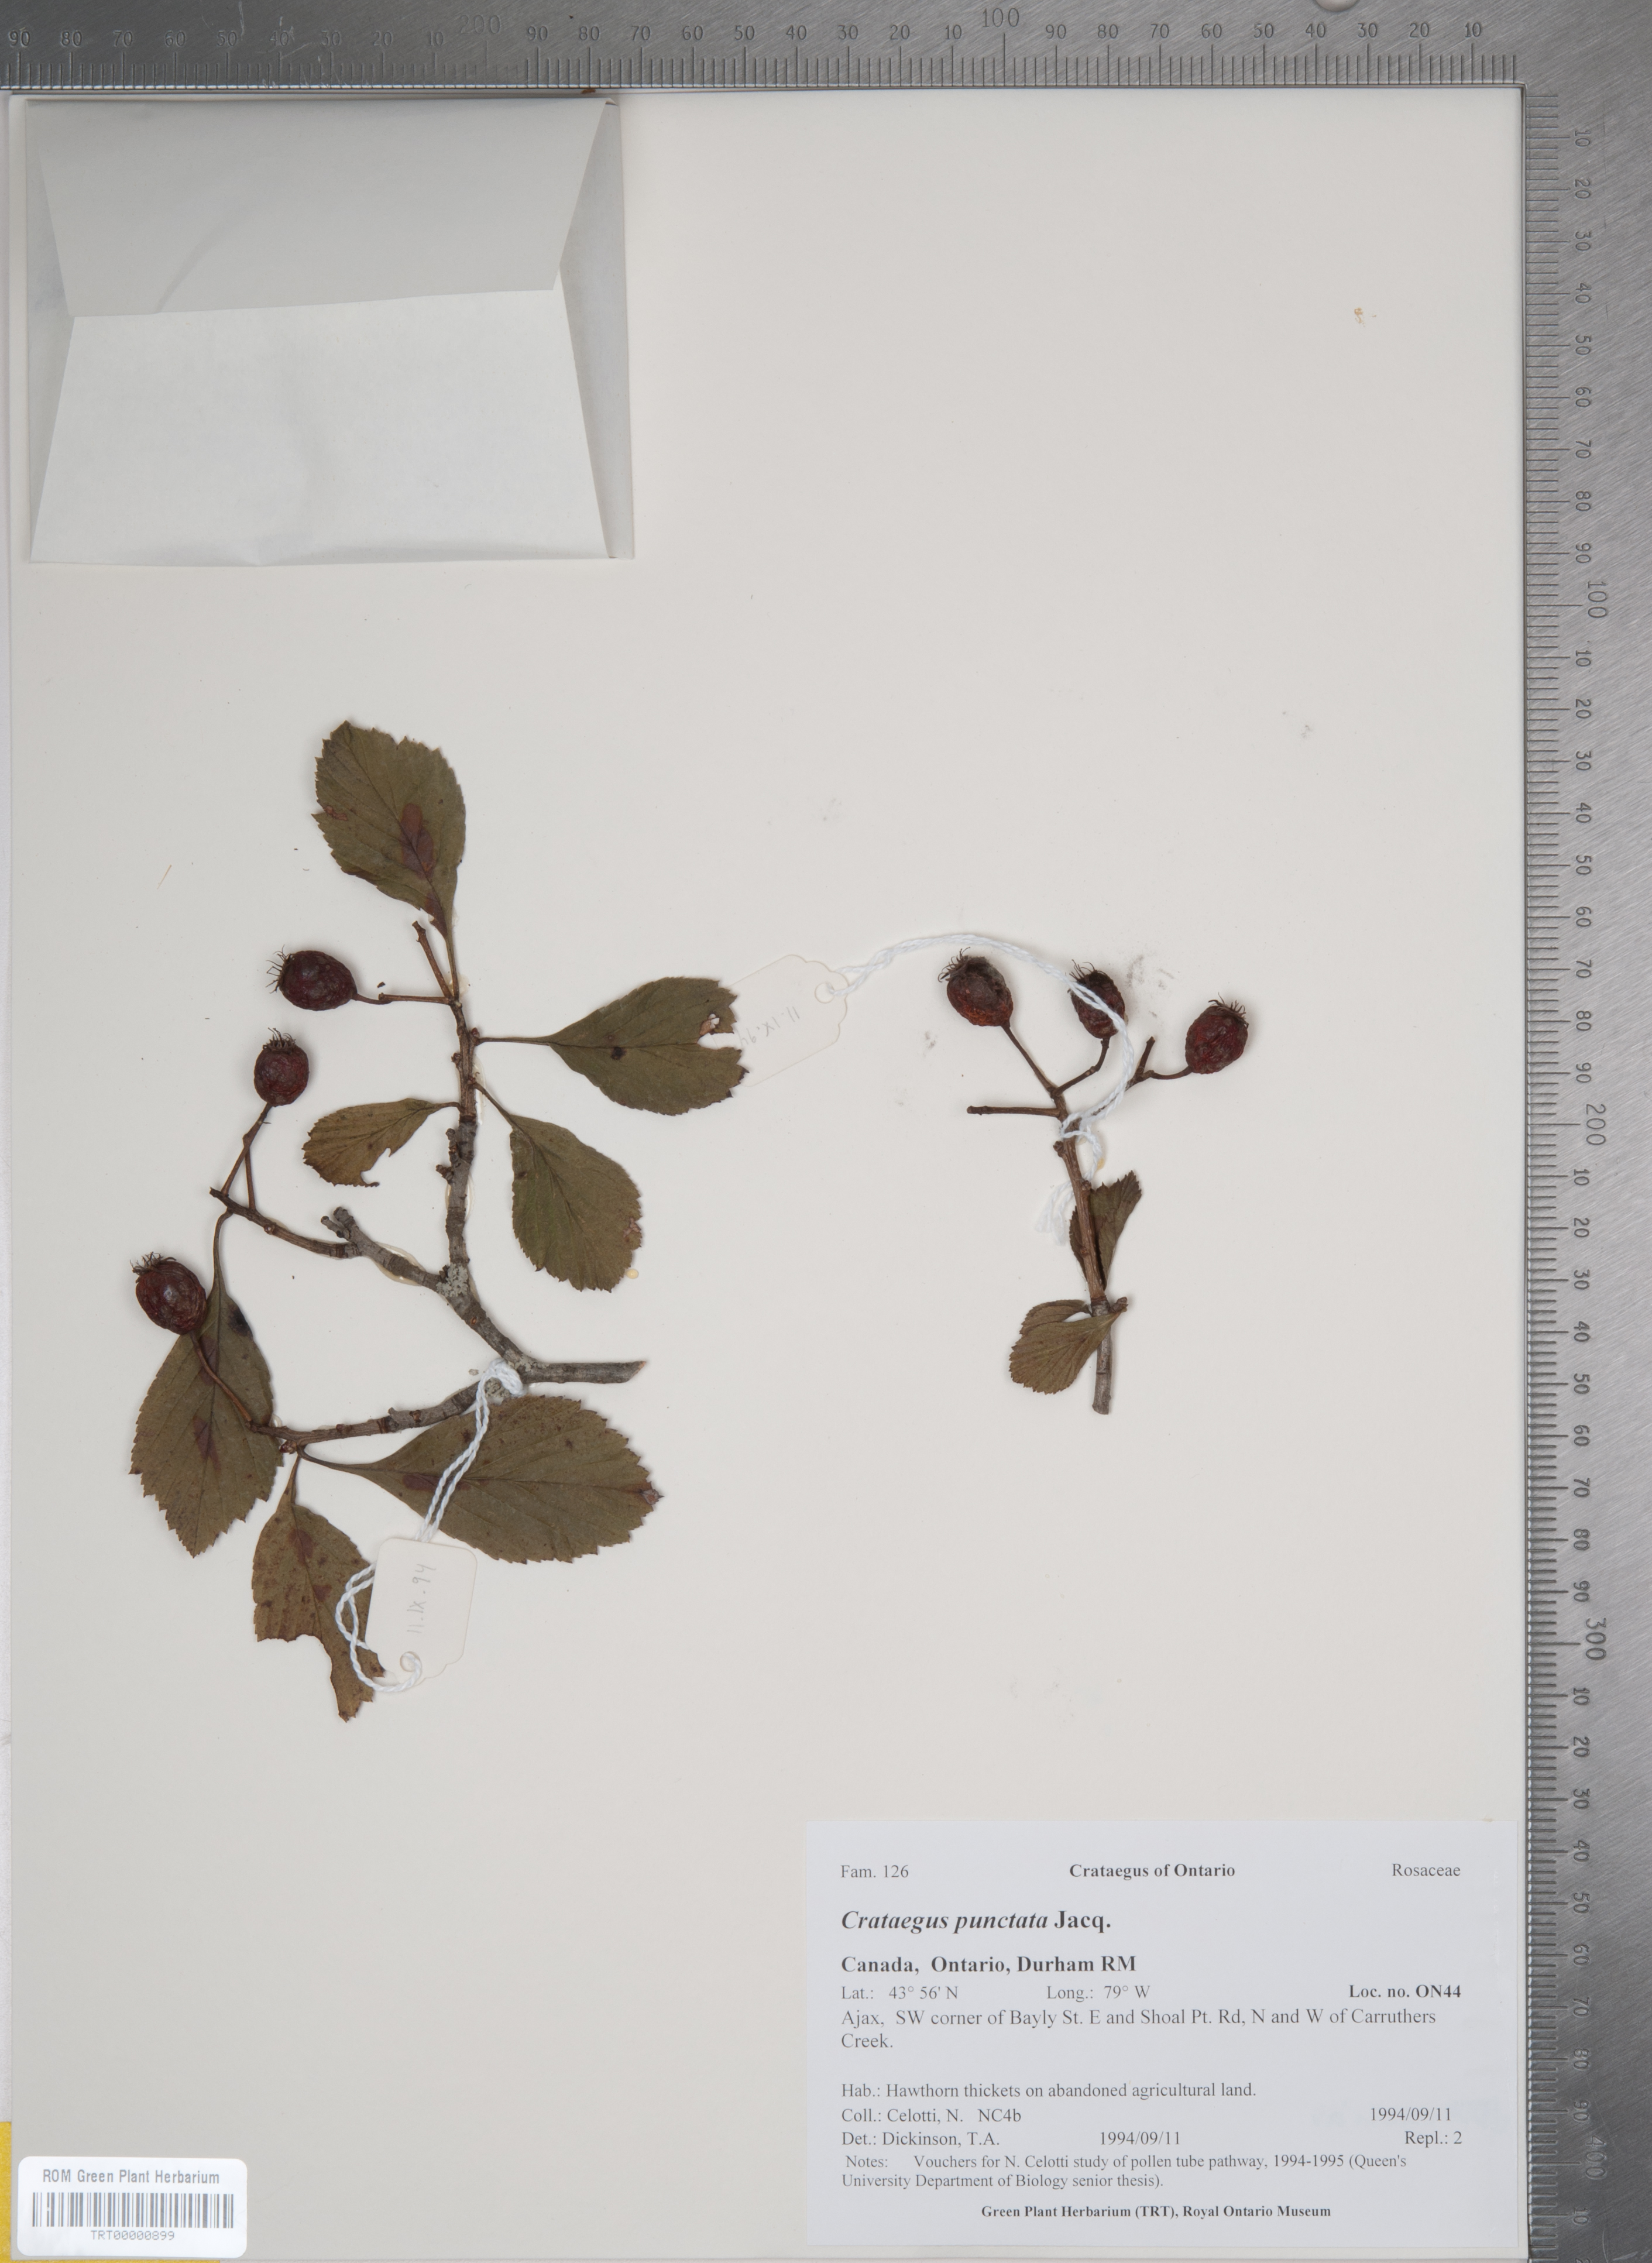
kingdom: Plantae
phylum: Tracheophyta
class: Magnoliopsida
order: Rosales
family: Rosaceae
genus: Crataegus
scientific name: Crataegus punctata
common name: Dotted hawthorn
